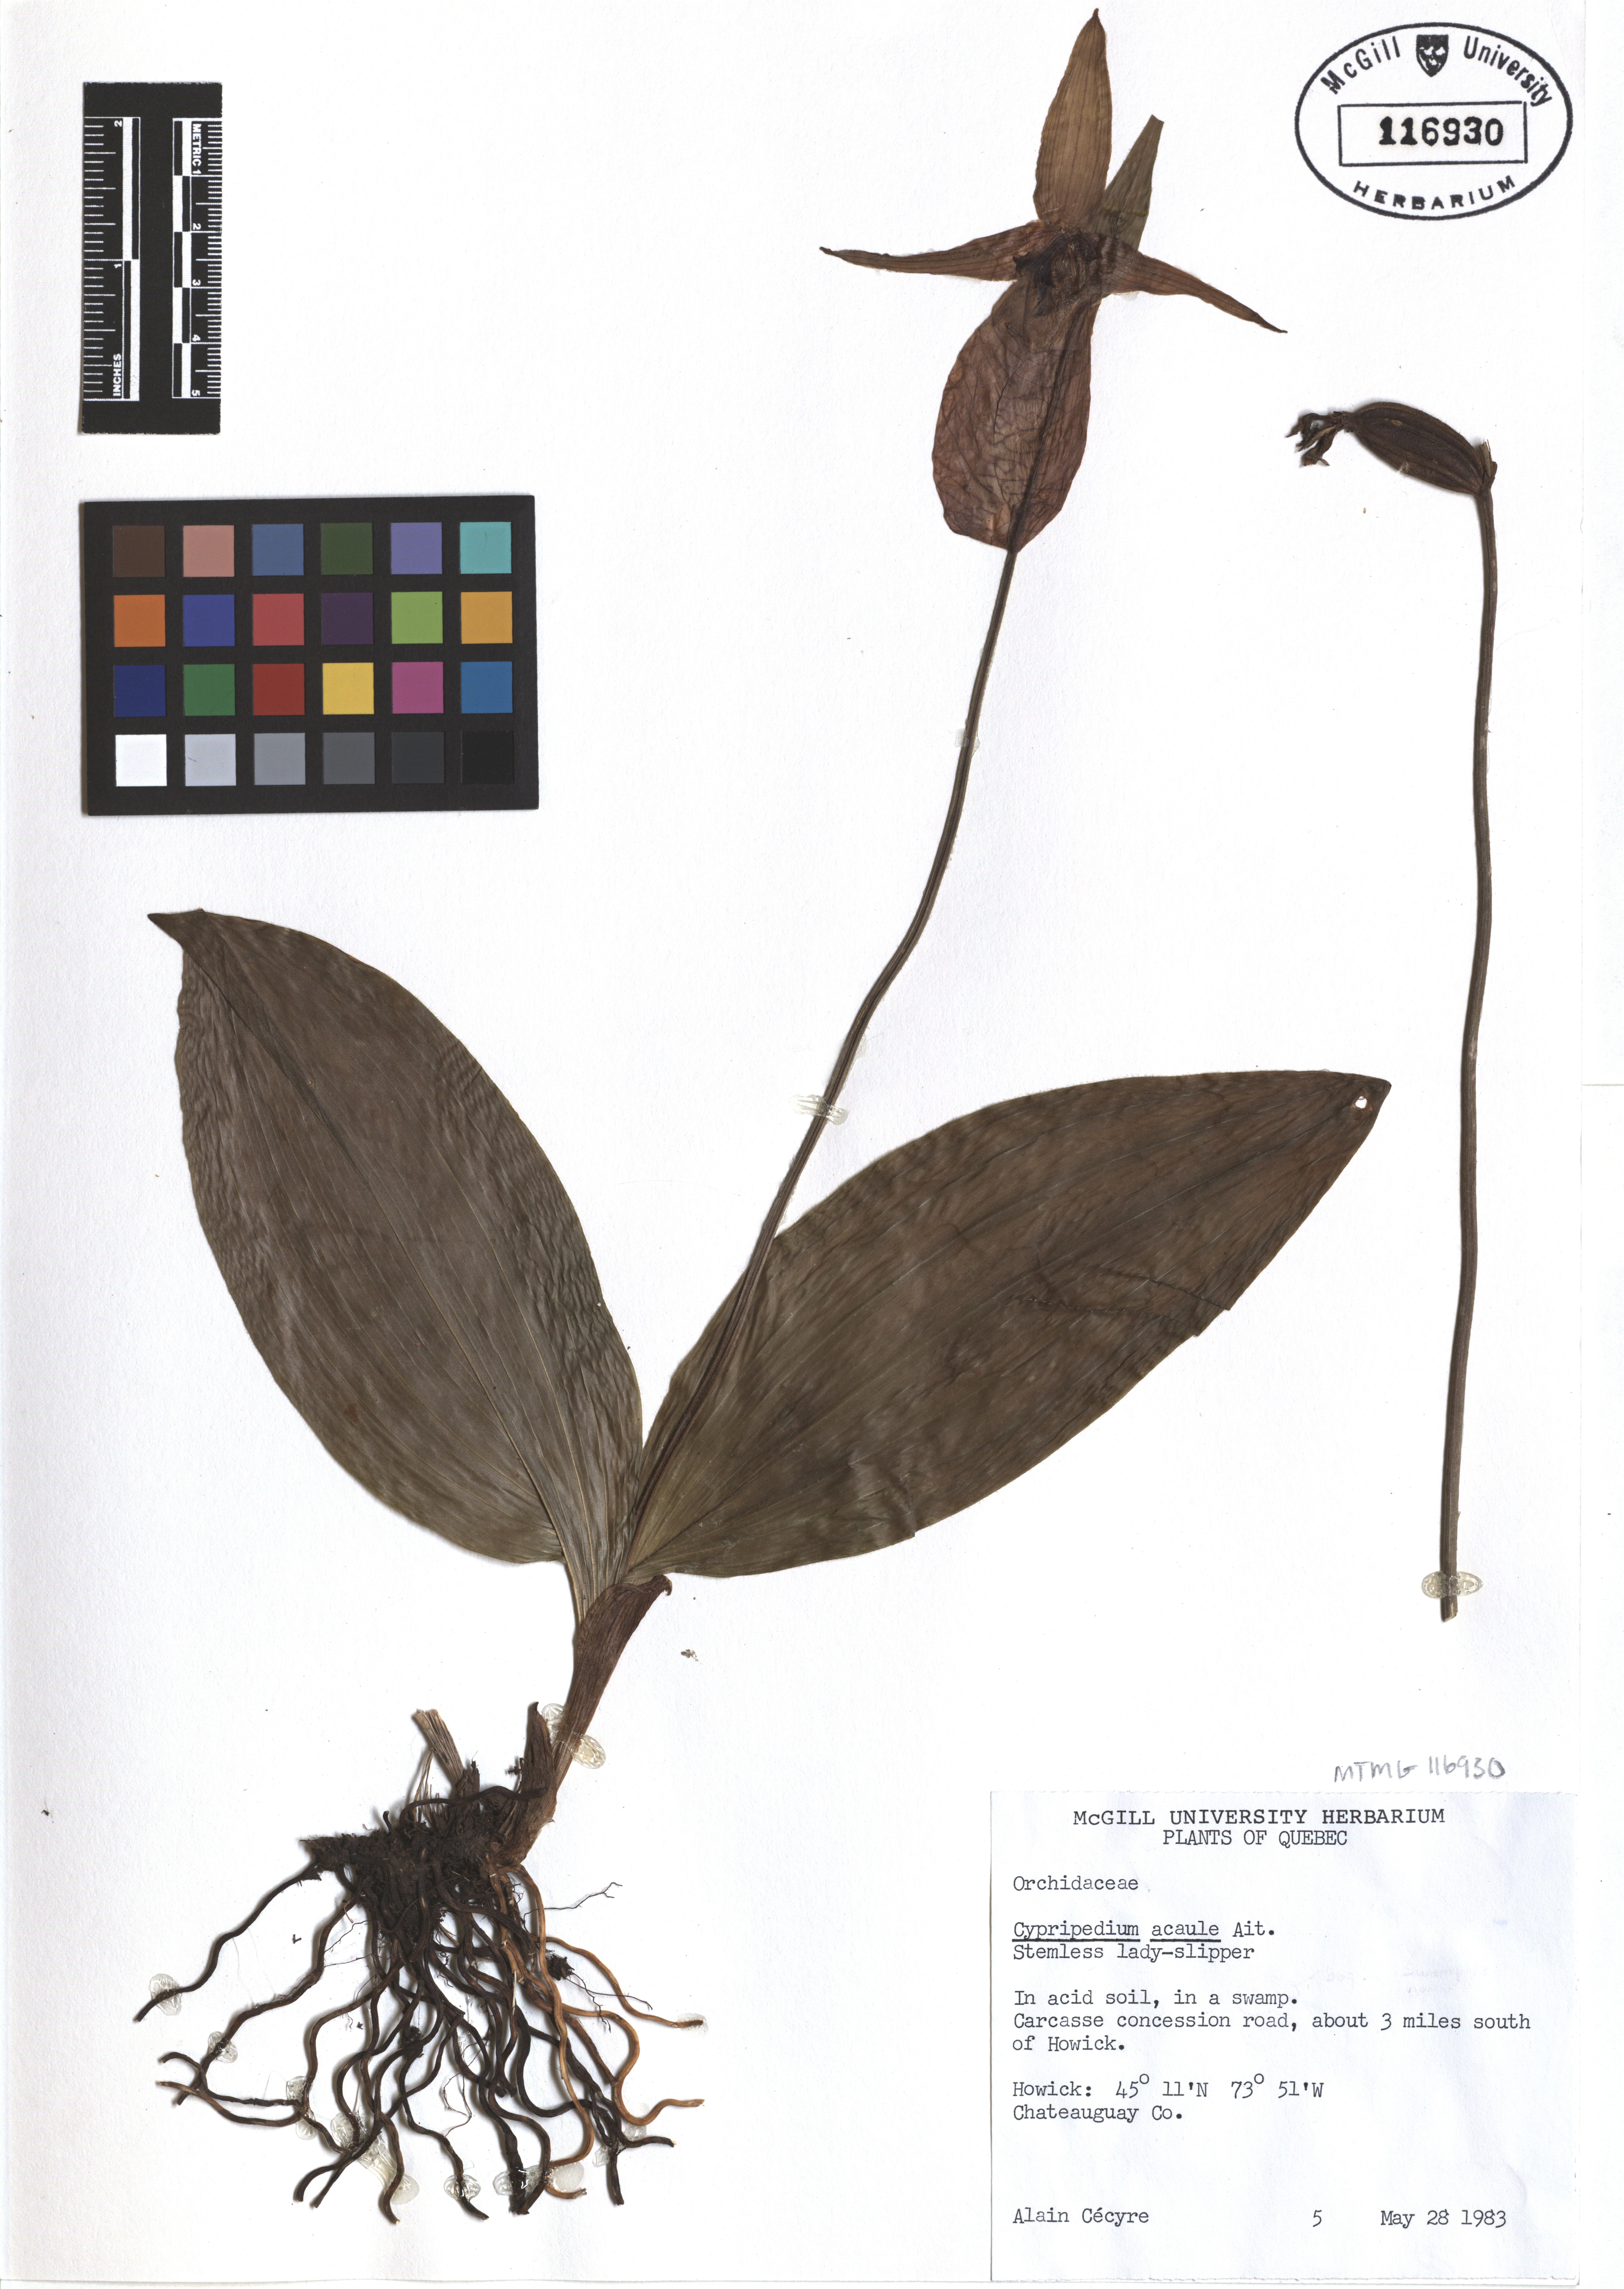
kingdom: Plantae
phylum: Tracheophyta
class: Liliopsida
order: Asparagales
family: Orchidaceae
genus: Cypripedium
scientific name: Cypripedium acaule
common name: Pink lady's-slipper
